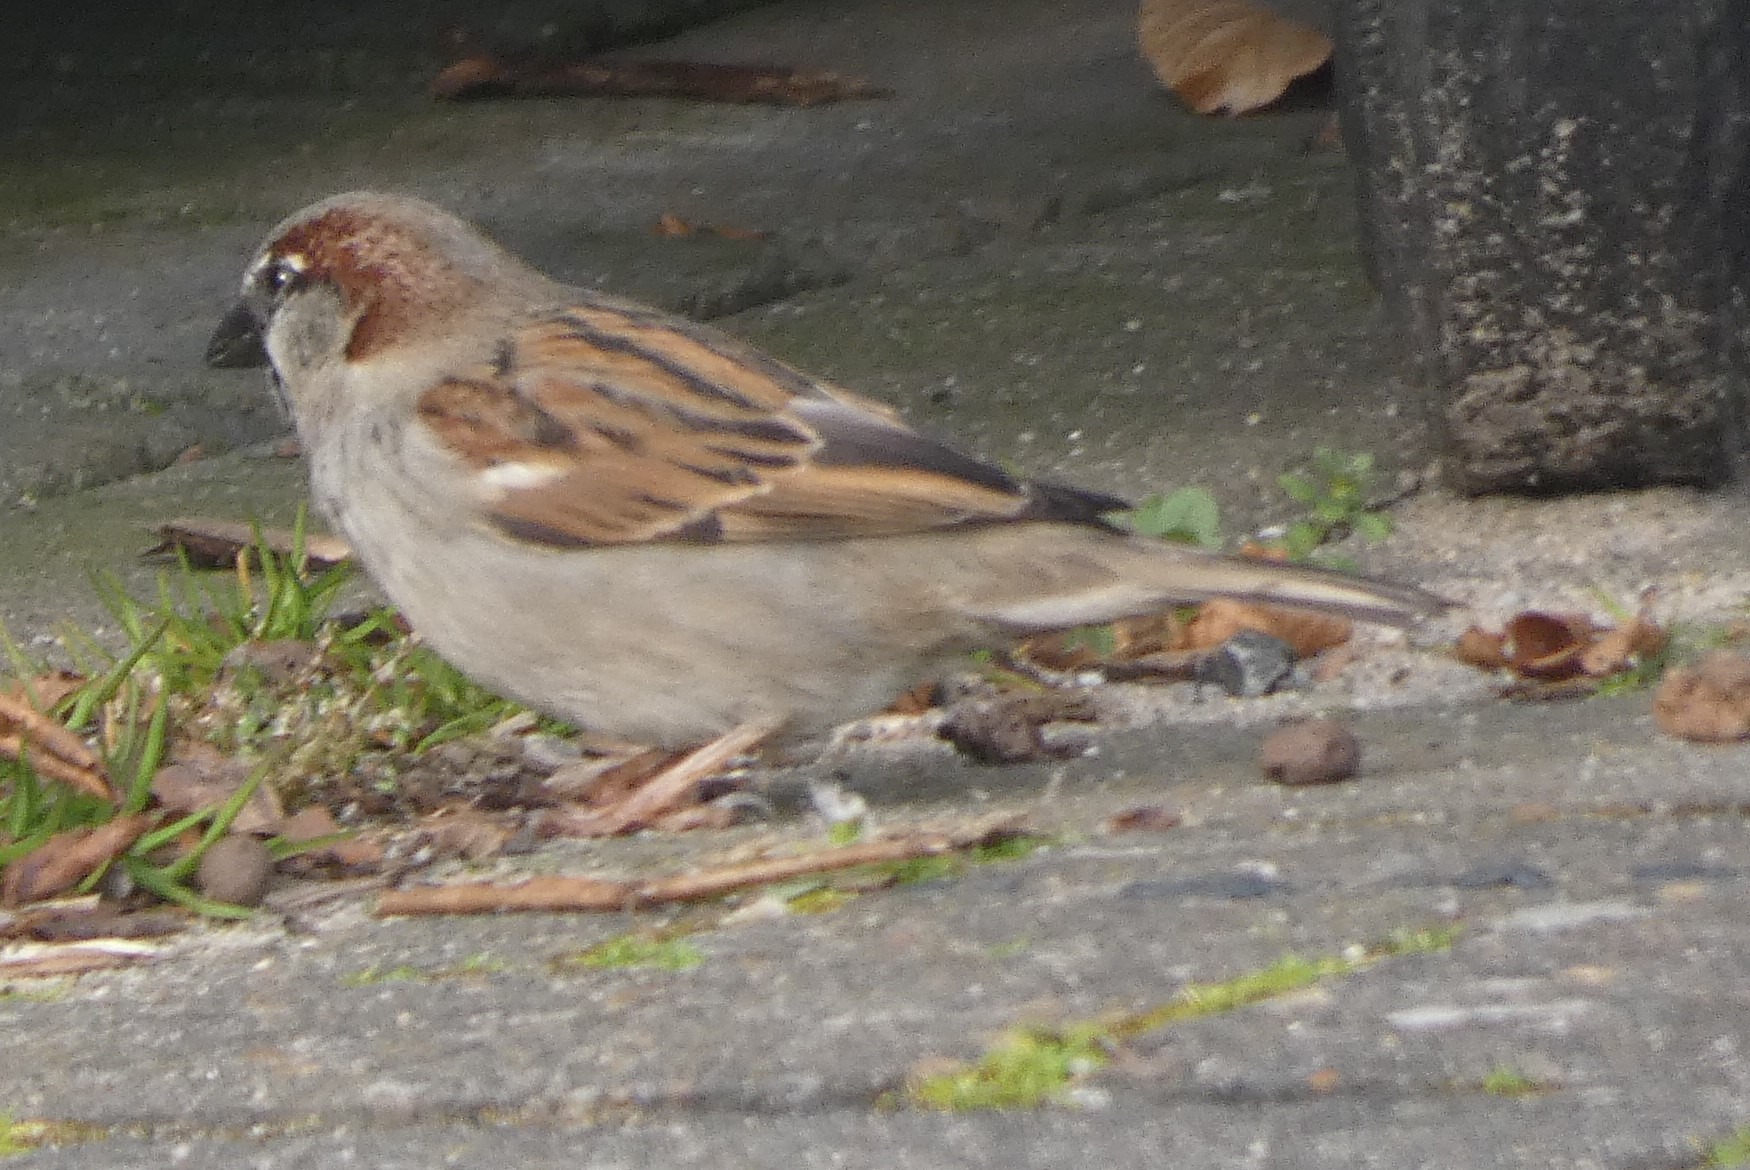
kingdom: Animalia
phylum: Chordata
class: Aves
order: Passeriformes
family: Passeridae
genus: Passer
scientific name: Passer domesticus
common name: Gråspurv
